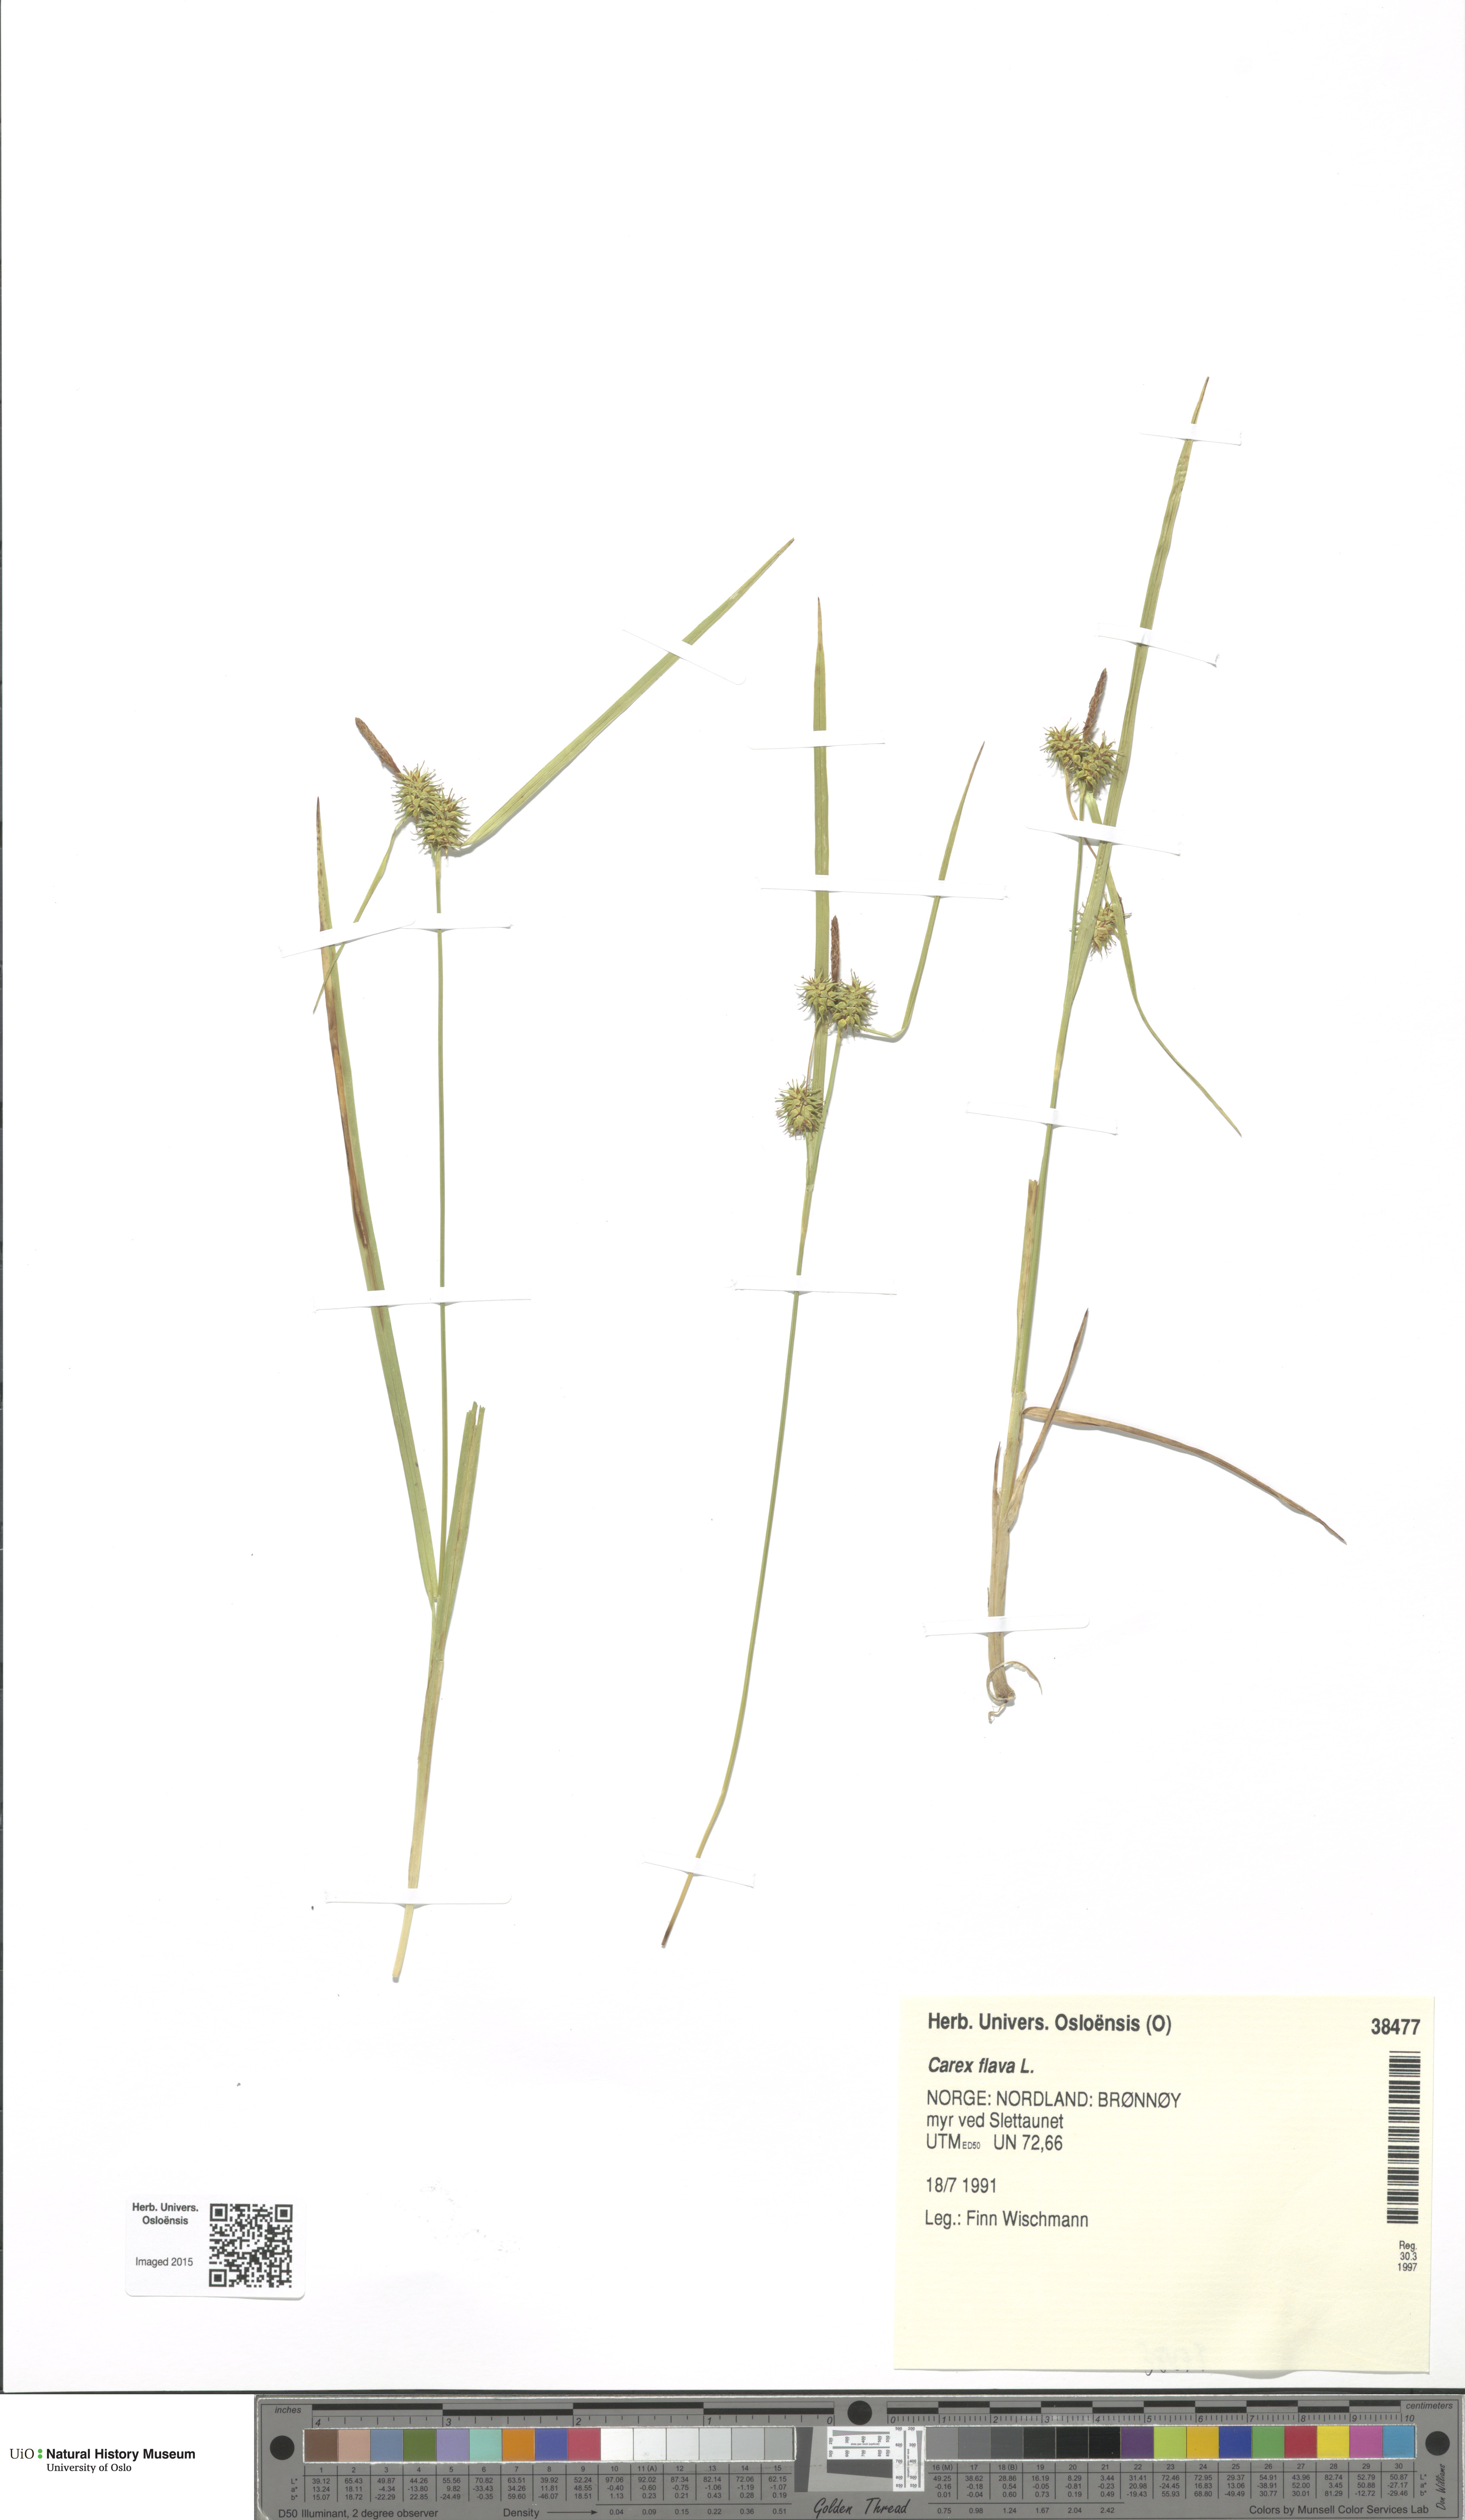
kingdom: Plantae
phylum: Tracheophyta
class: Liliopsida
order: Poales
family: Cyperaceae
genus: Carex
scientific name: Carex flava
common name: Large yellow-sedge
